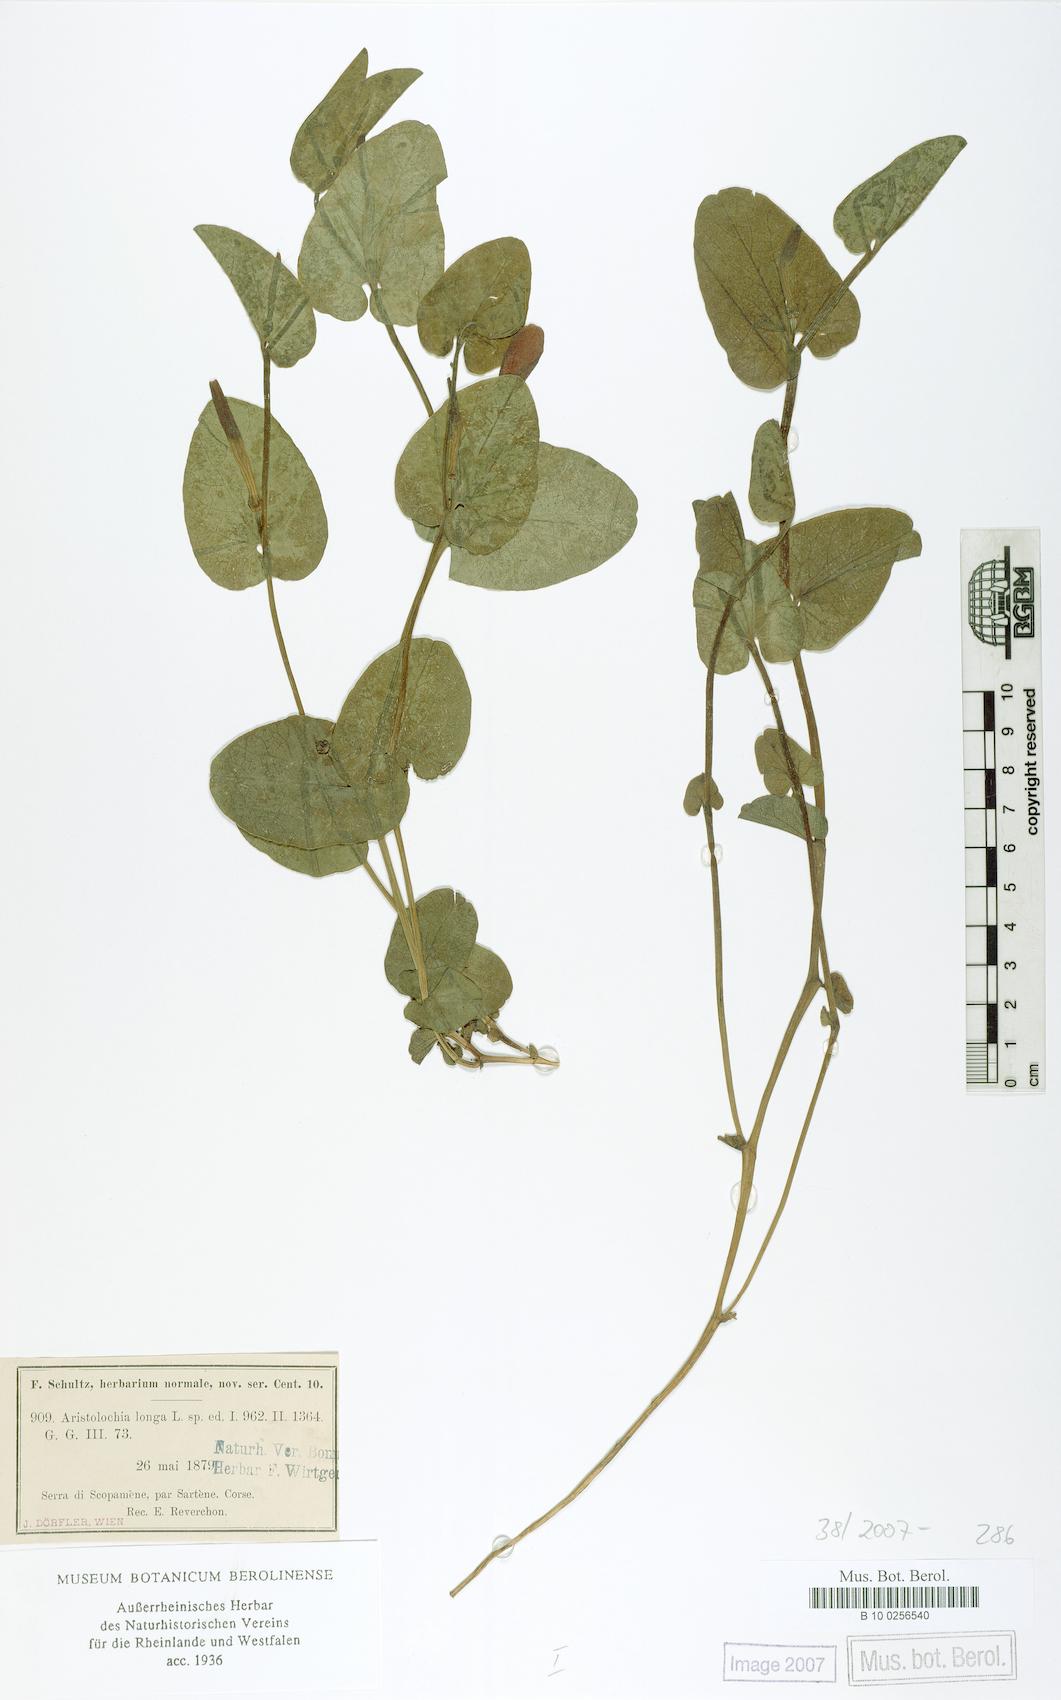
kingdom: Plantae
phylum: Tracheophyta
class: Magnoliopsida
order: Piperales
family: Aristolochiaceae
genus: Aristolochia
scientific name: Aristolochia fontanesii
